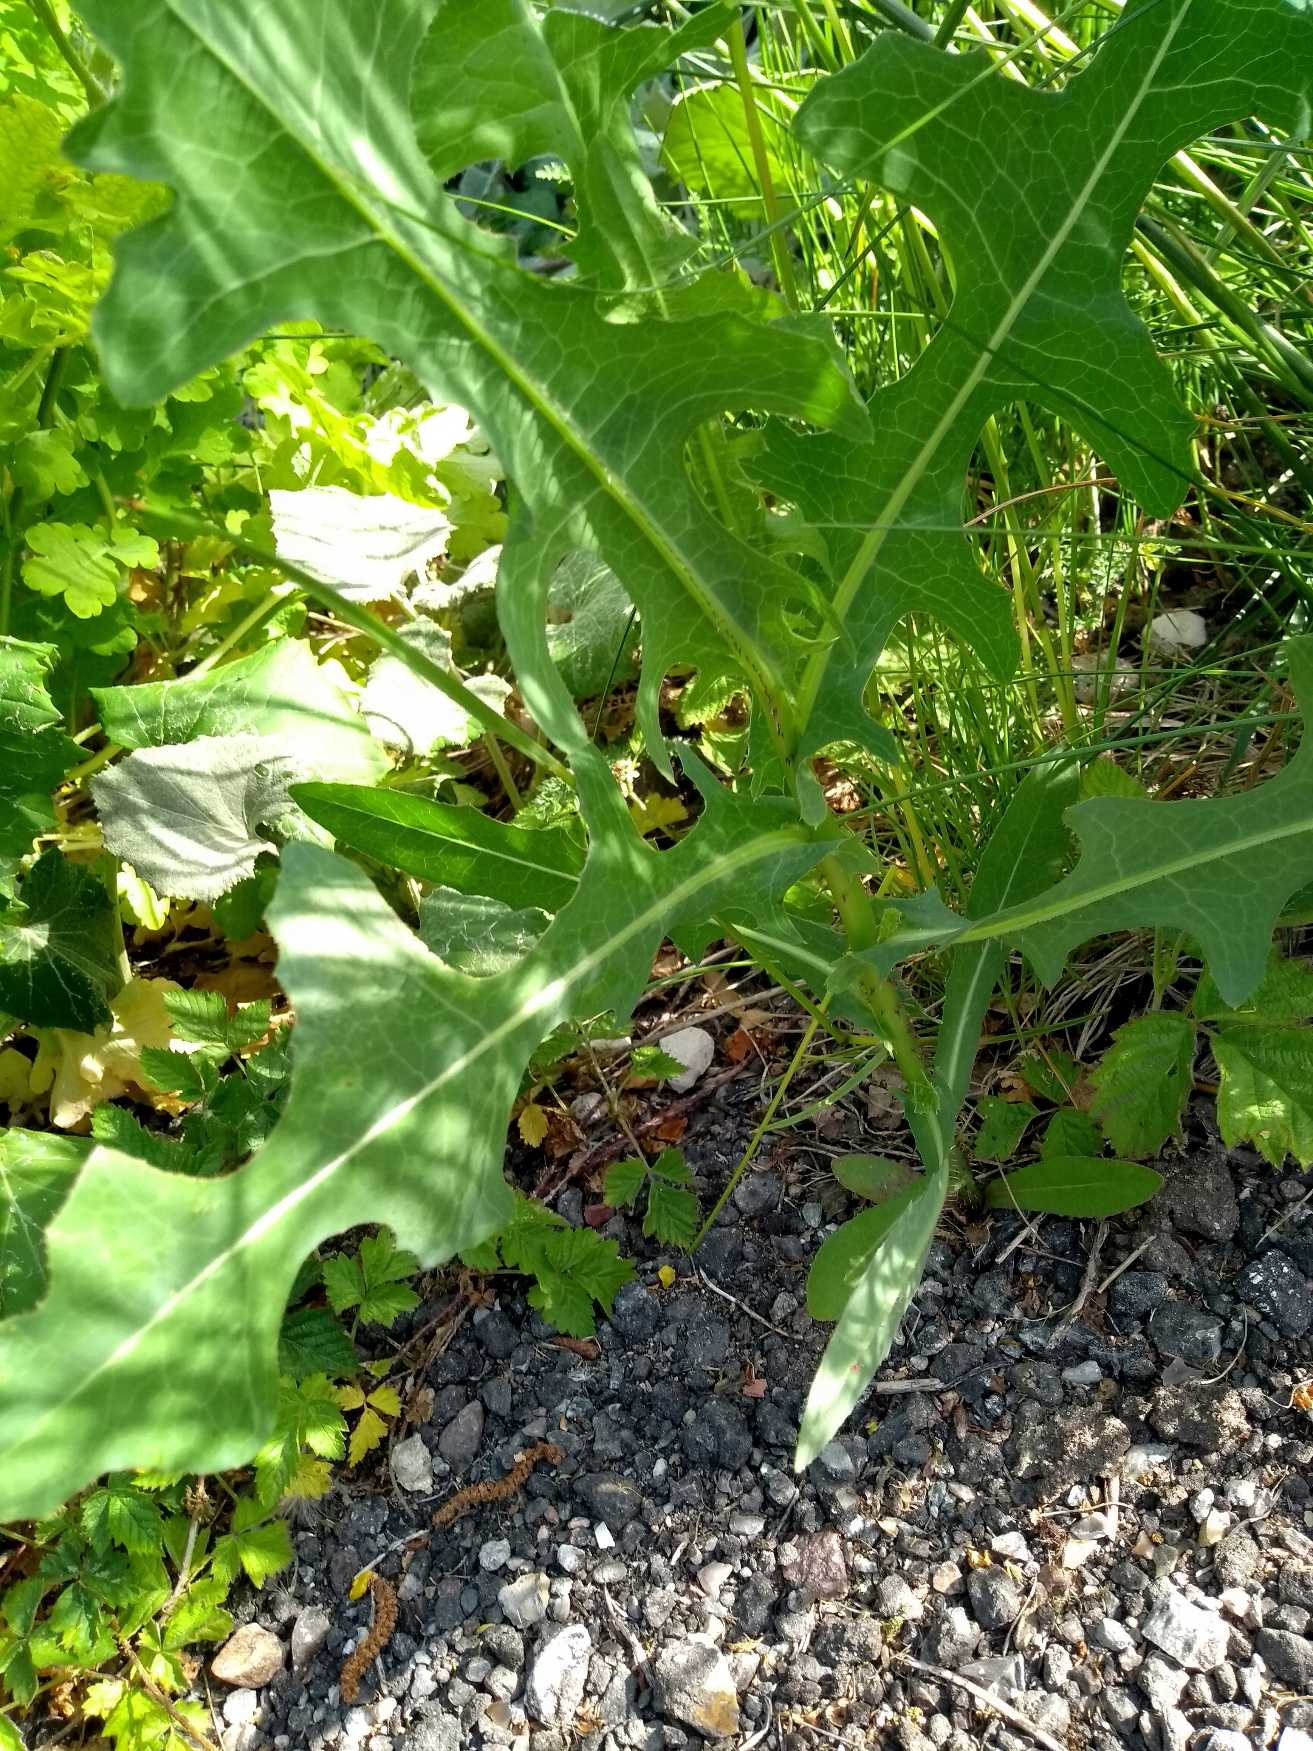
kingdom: Plantae
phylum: Tracheophyta
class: Magnoliopsida
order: Asterales
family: Asteraceae
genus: Lactuca
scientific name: Lactuca serriola
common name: Tornet salat
